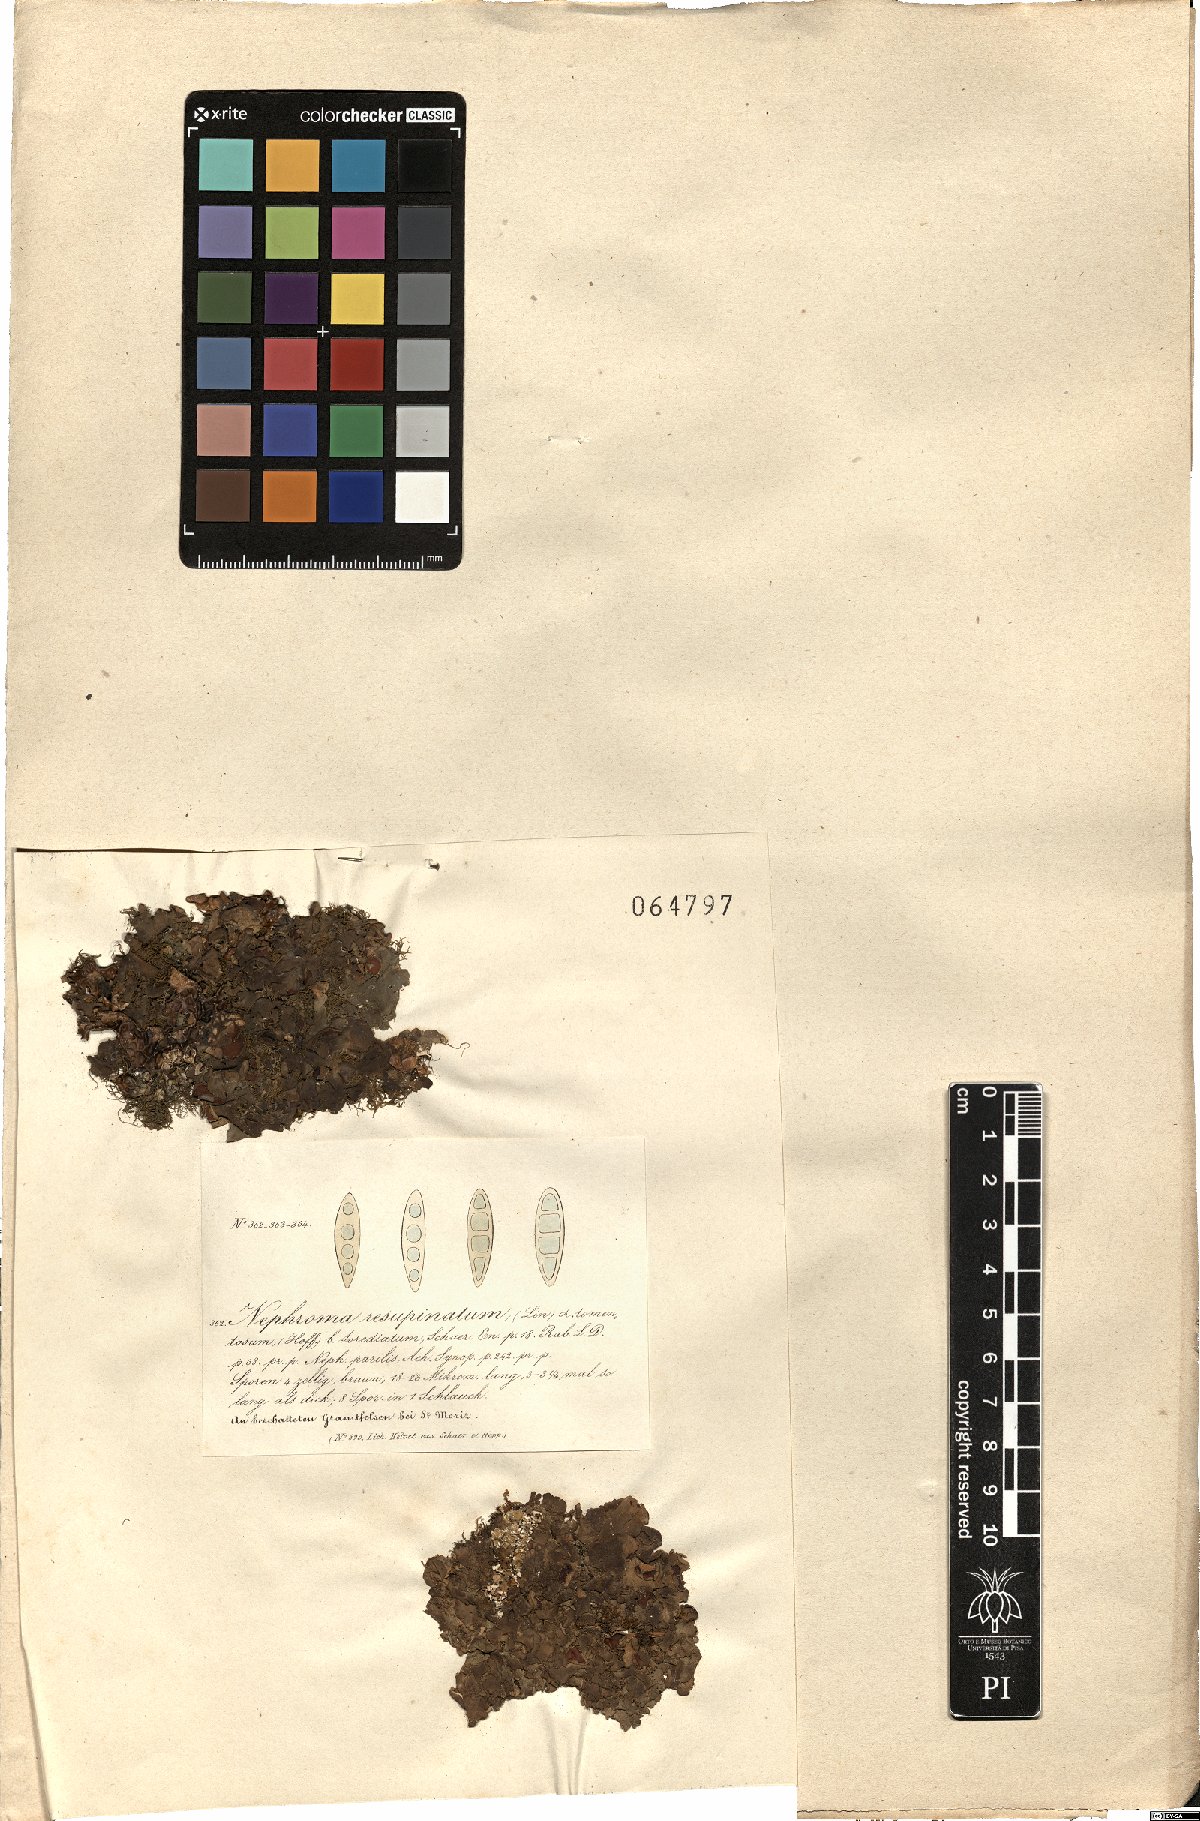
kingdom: Fungi
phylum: Ascomycota
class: Lecanoromycetes
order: Peltigerales
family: Nephromataceae
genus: Nephroma
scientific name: Nephroma resupinatum
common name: Pimpled kidney lichen
